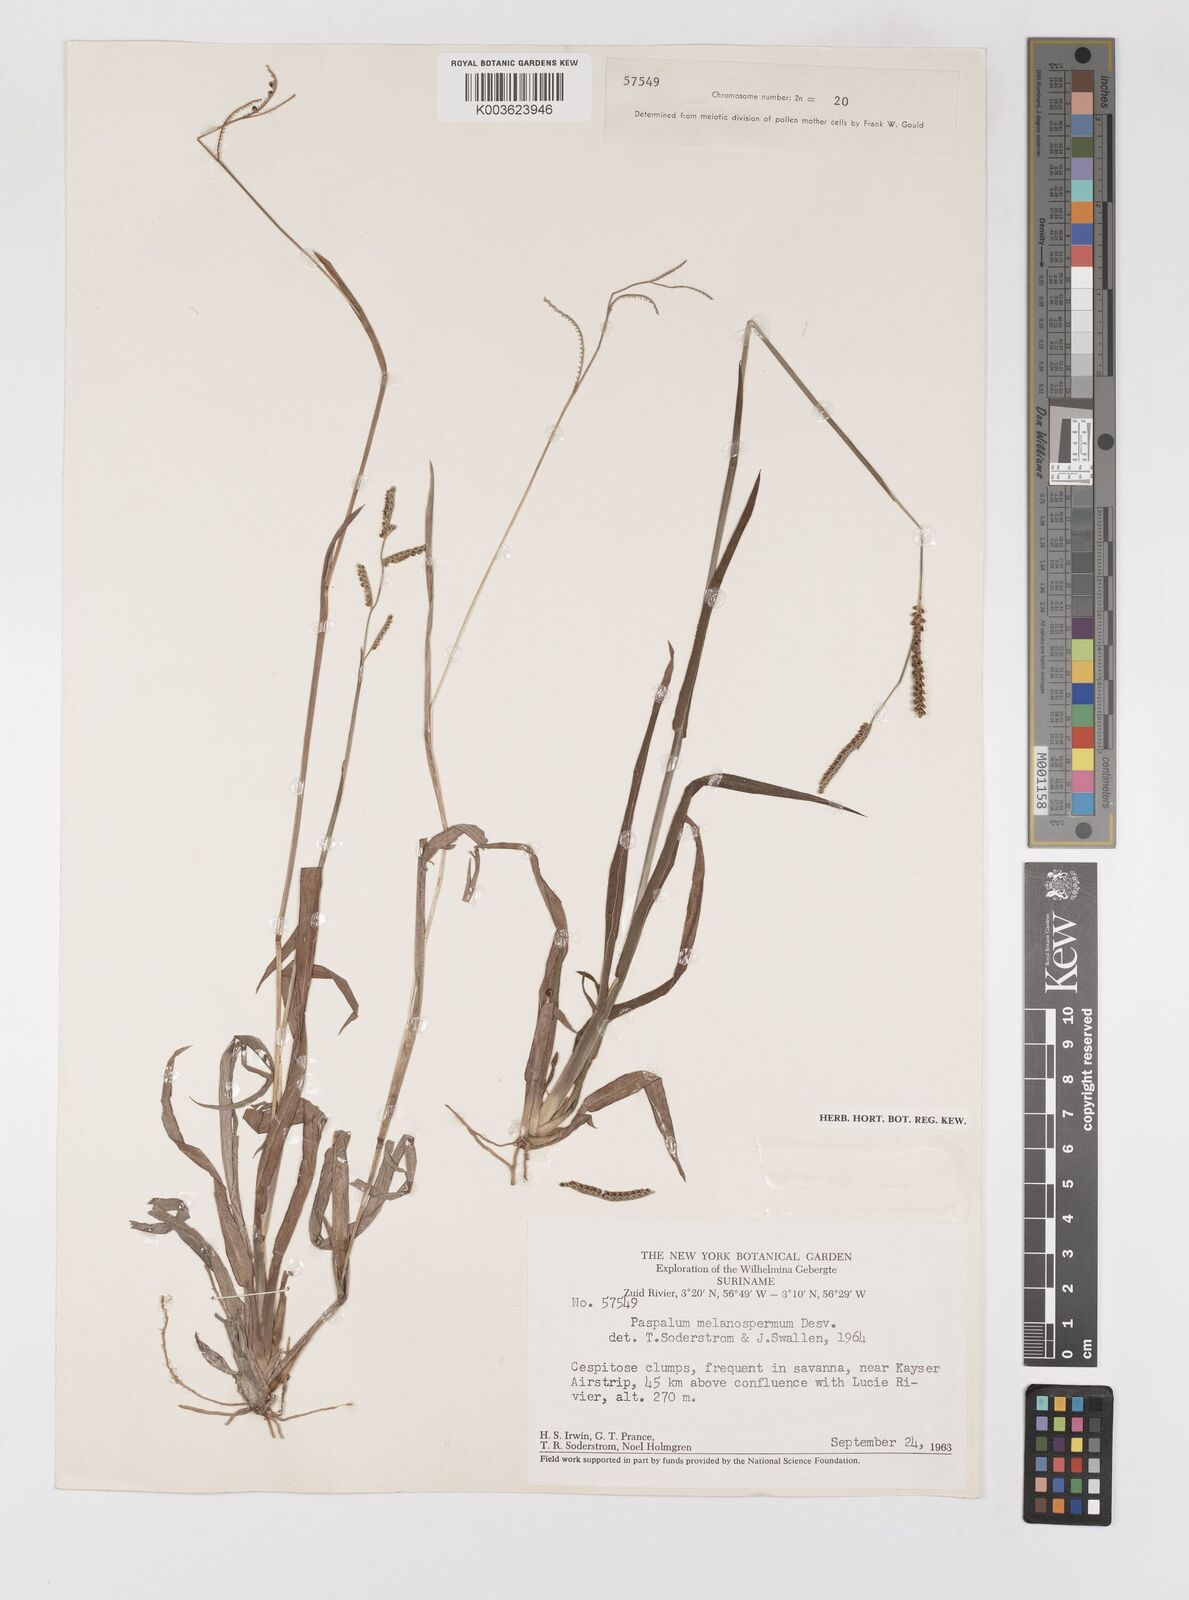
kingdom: Plantae
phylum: Tracheophyta
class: Liliopsida
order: Poales
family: Poaceae
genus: Paspalum
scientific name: Paspalum melanospermum
